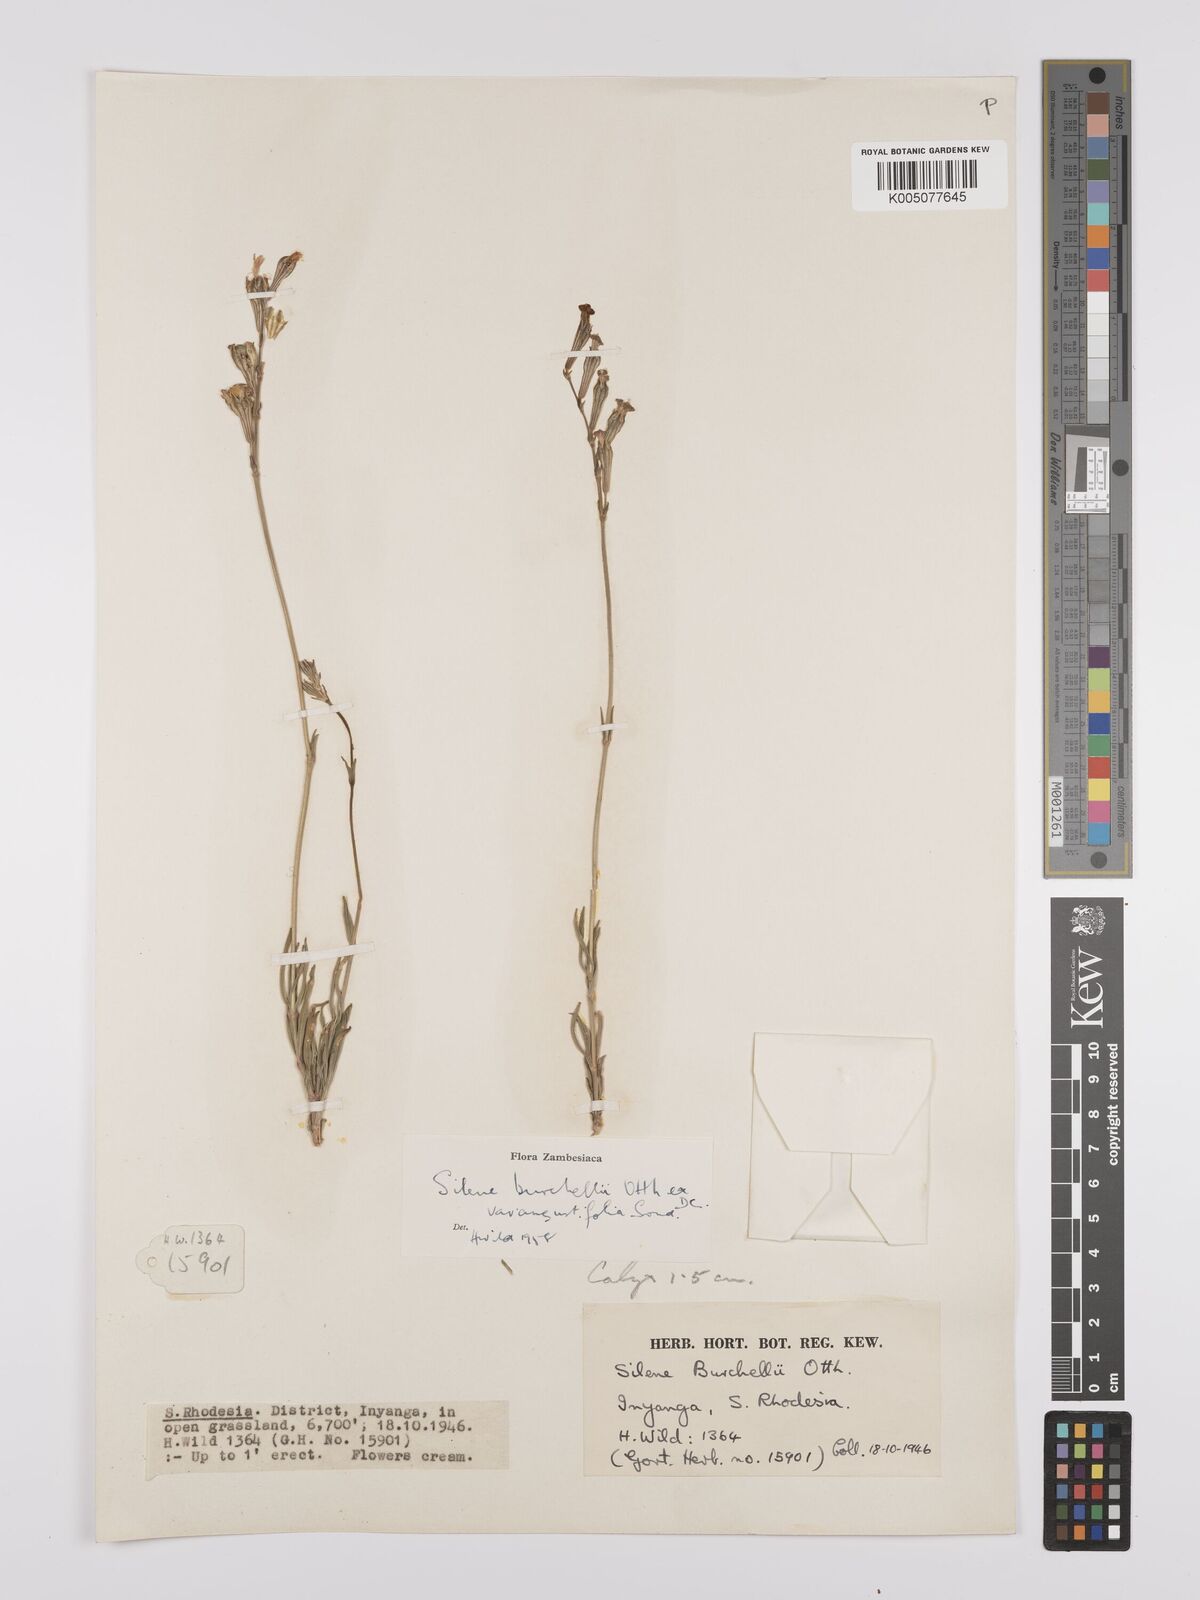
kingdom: Plantae
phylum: Tracheophyta
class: Magnoliopsida
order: Caryophyllales
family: Caryophyllaceae
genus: Silene
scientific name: Silene burchellii
